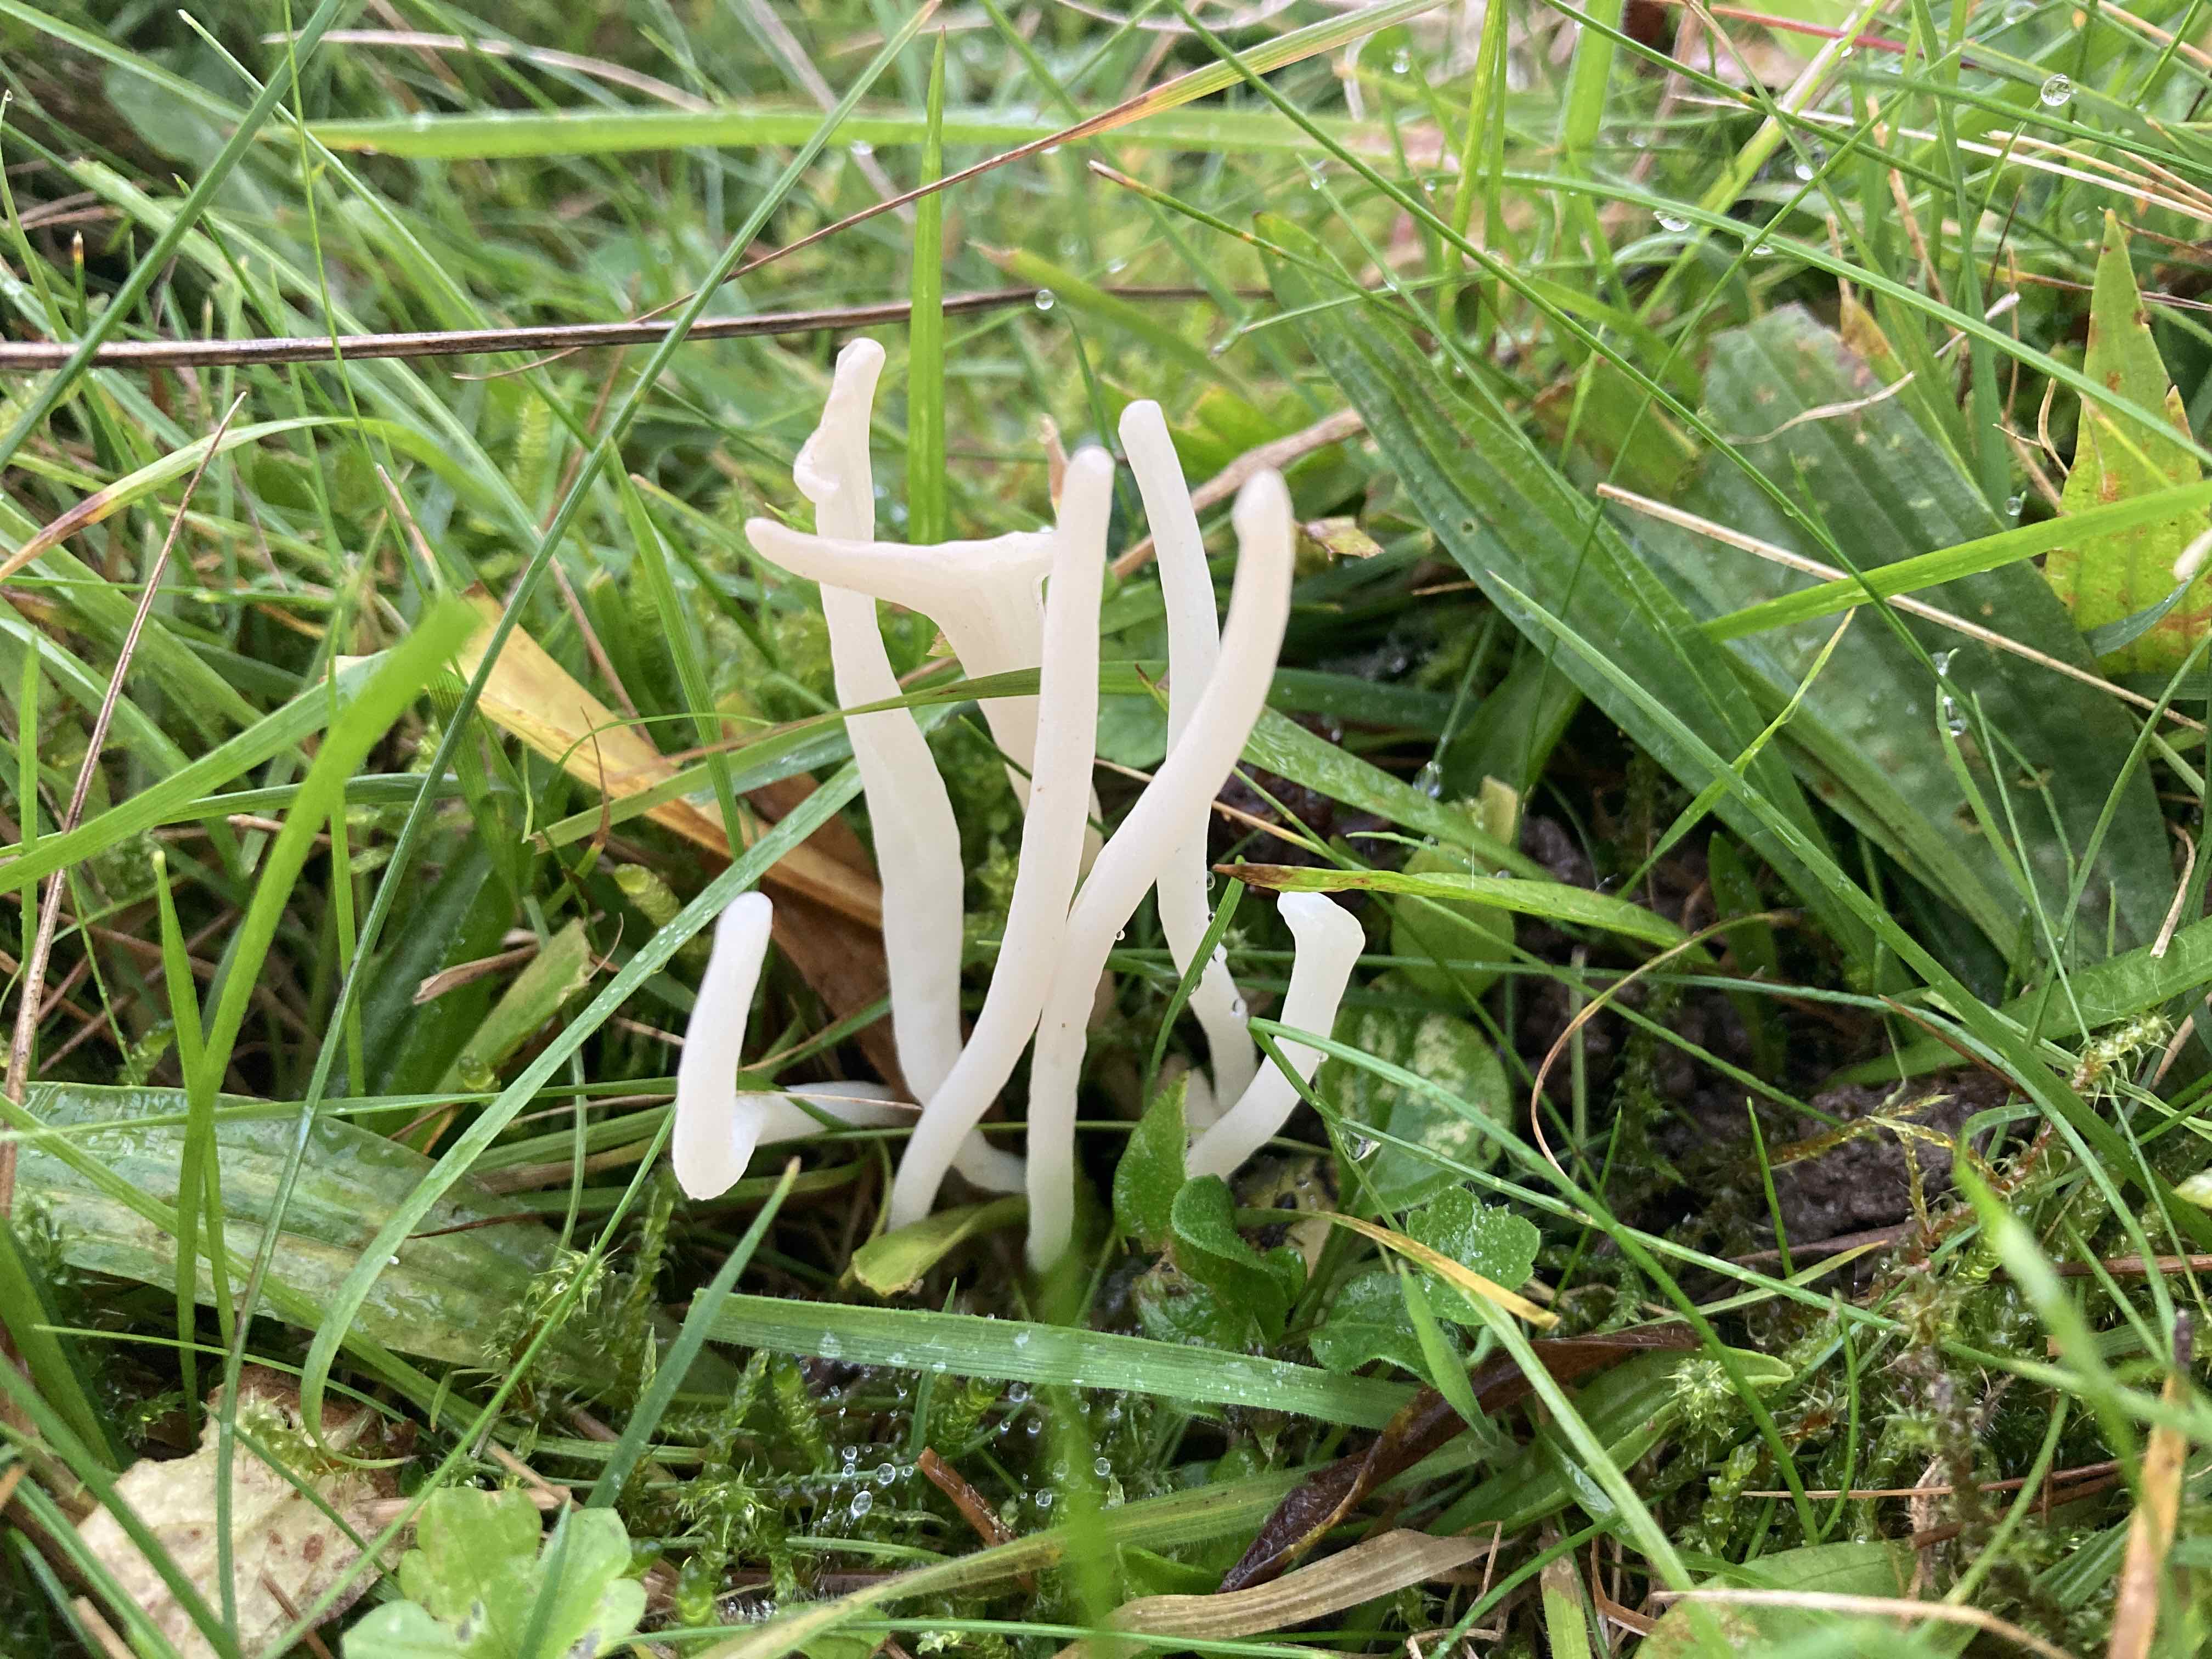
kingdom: Fungi
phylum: Basidiomycota
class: Agaricomycetes
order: Agaricales
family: Clavariaceae
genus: Clavaria
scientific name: Clavaria falcata
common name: hvid køllesvamp
